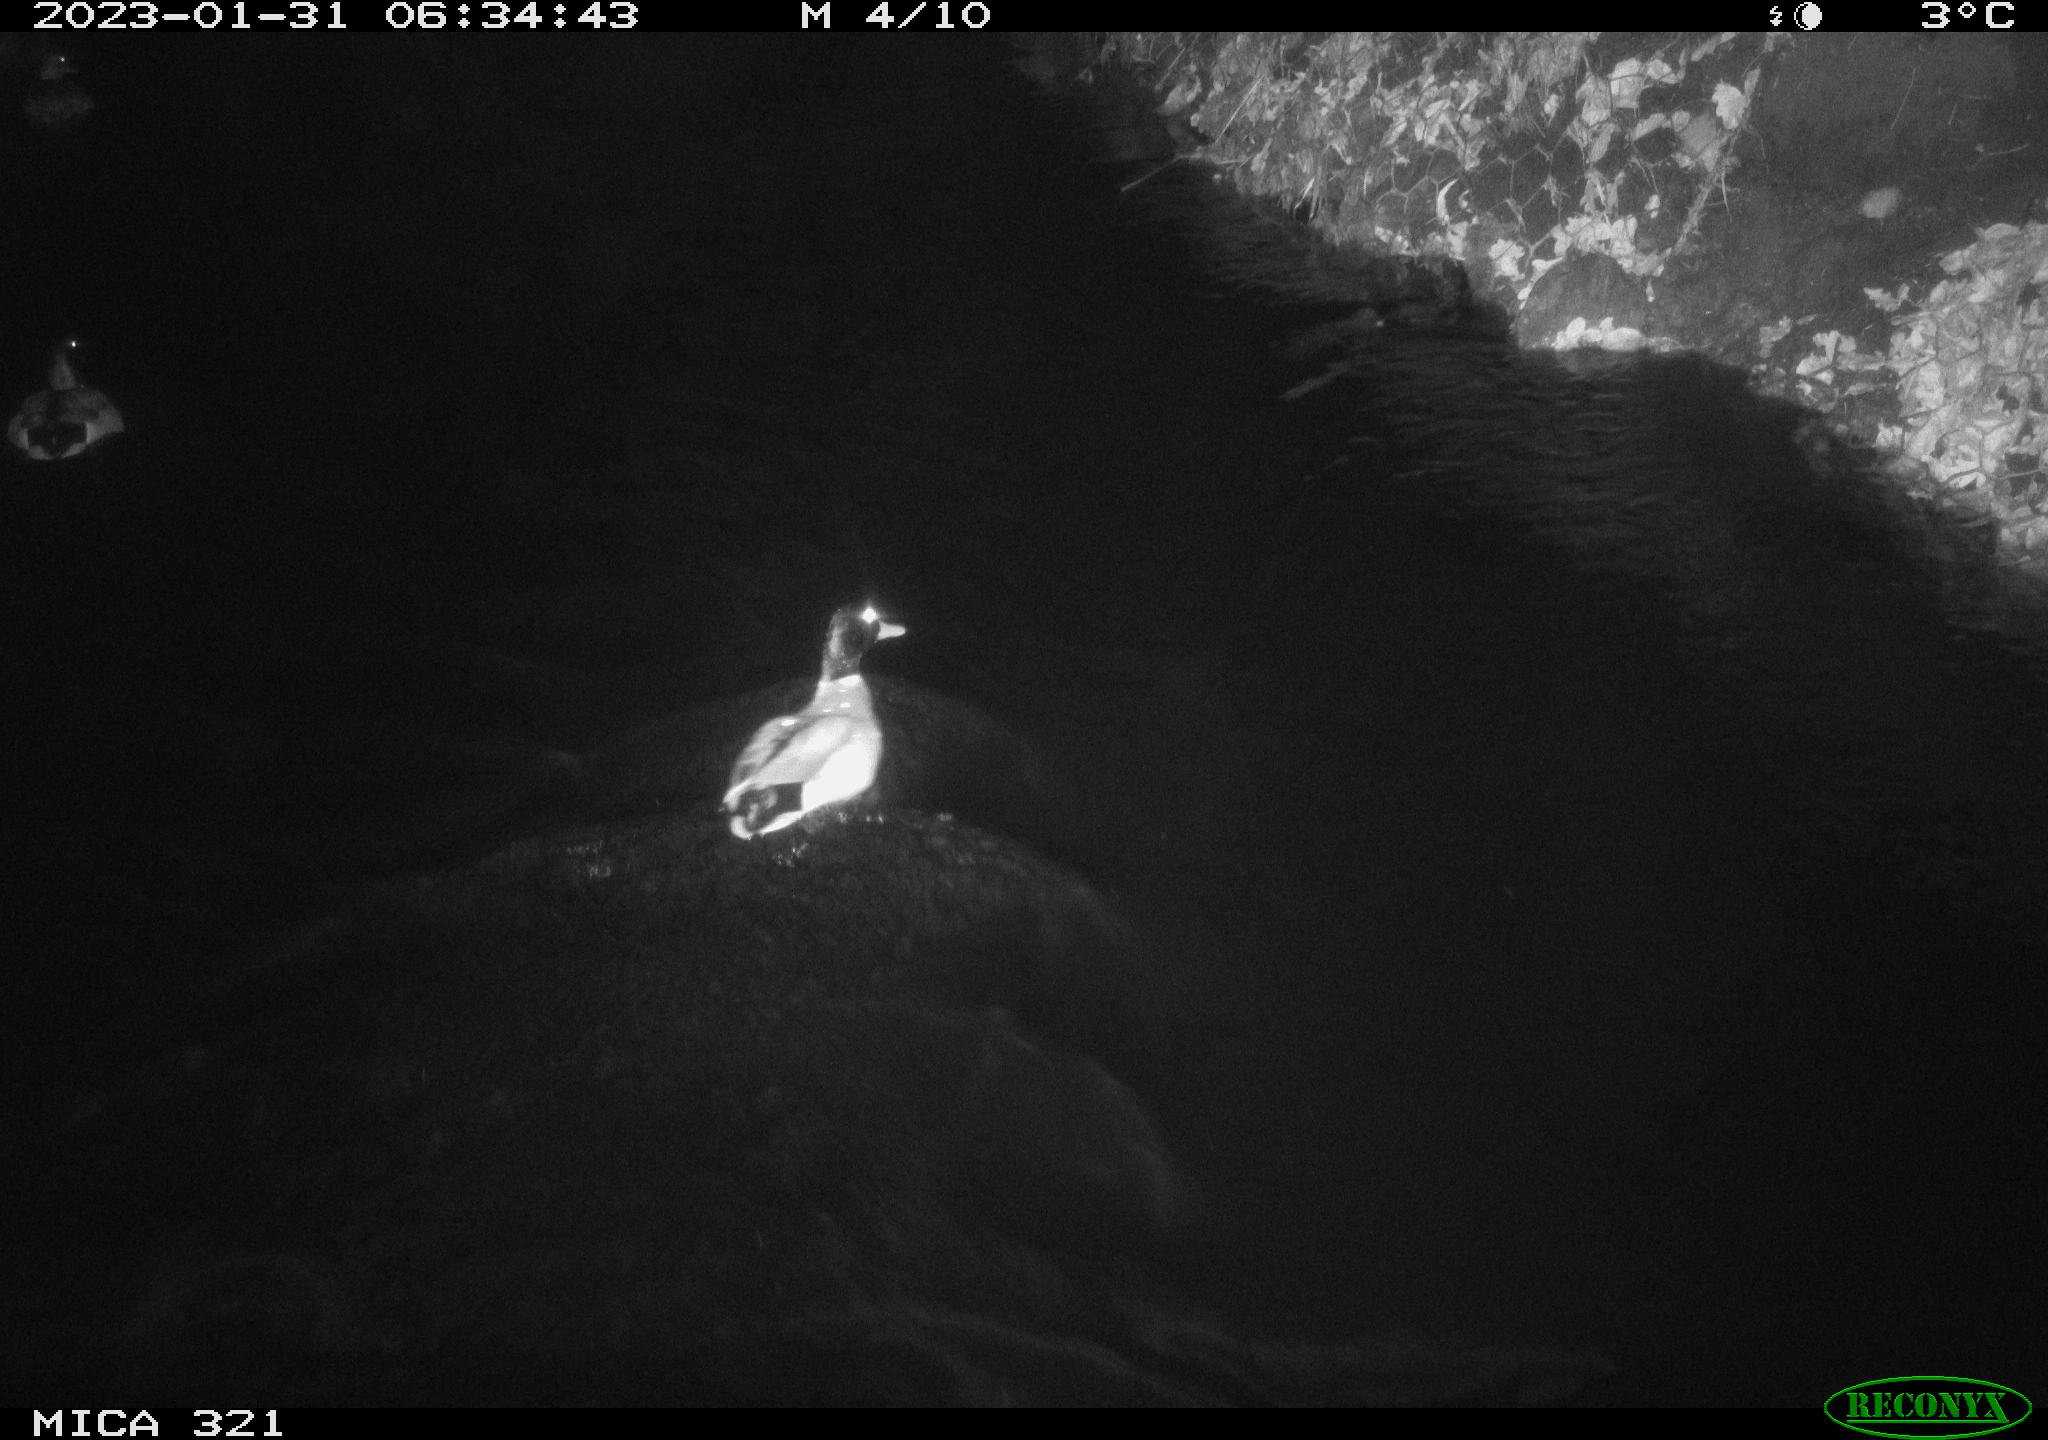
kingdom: Animalia
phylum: Chordata
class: Aves
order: Anseriformes
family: Anatidae
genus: Anas
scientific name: Anas
